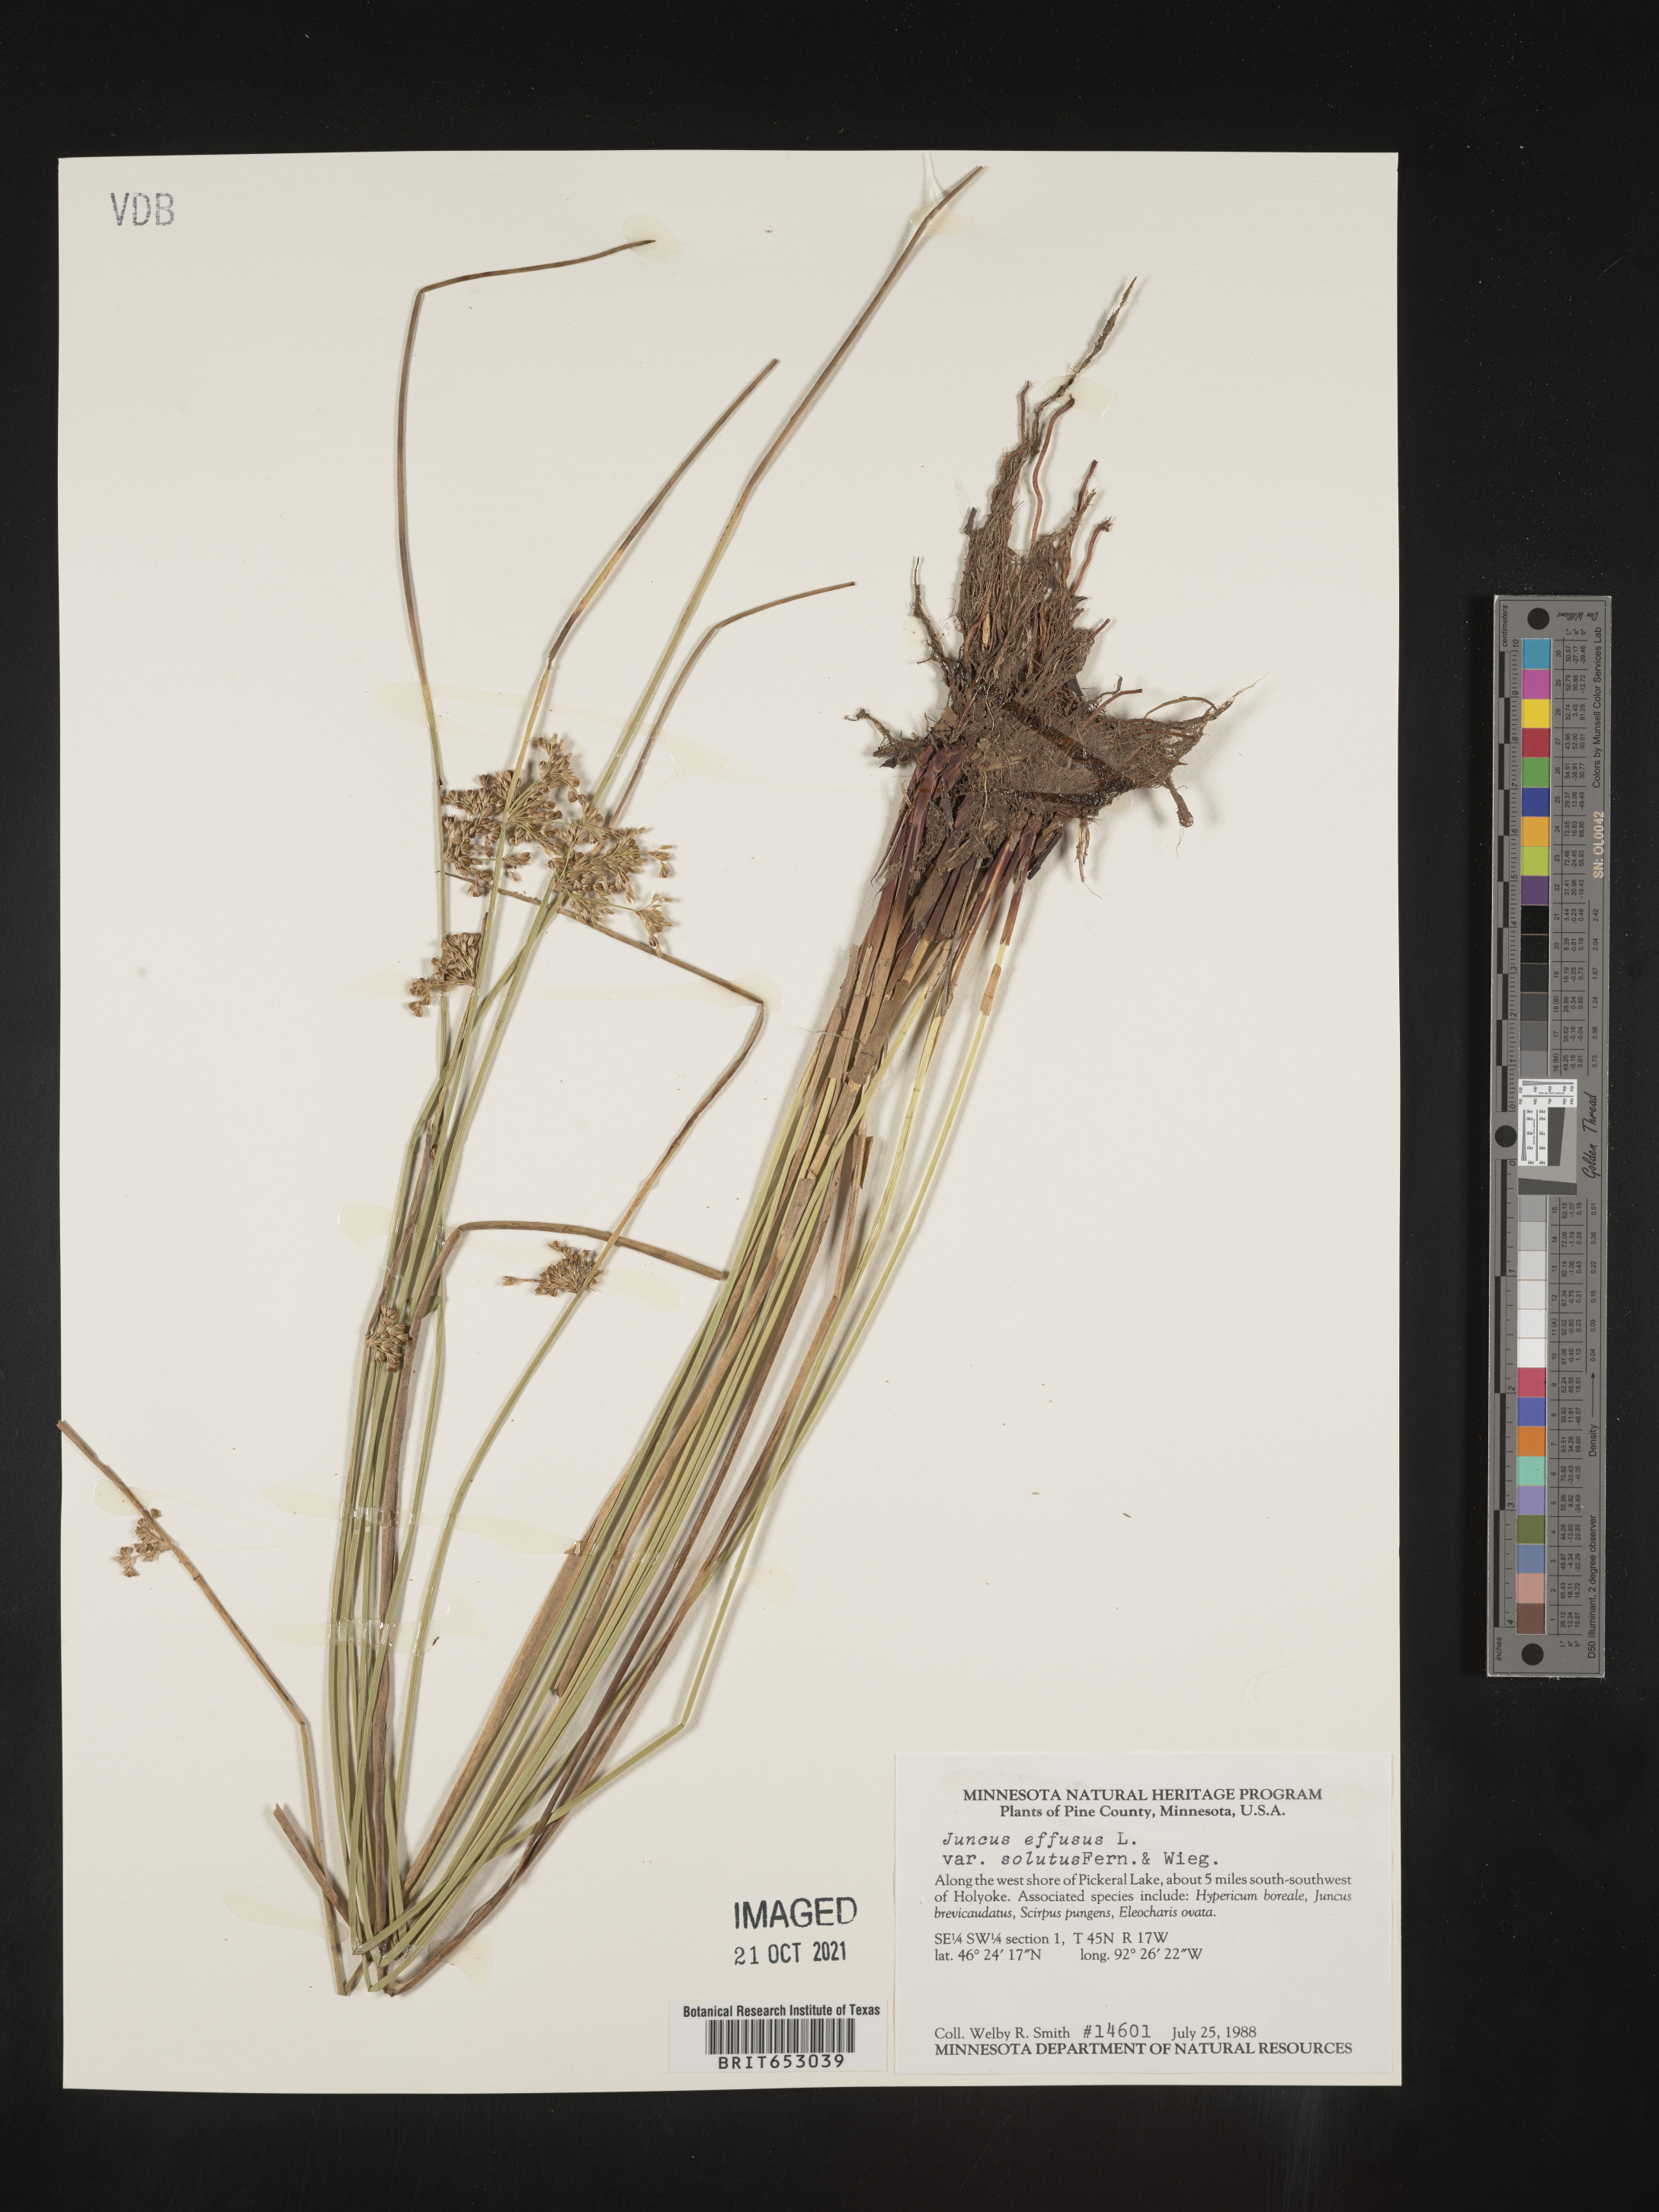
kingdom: Plantae
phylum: Tracheophyta
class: Liliopsida
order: Poales
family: Juncaceae
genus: Juncus
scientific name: Juncus effusus
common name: Soft rush
